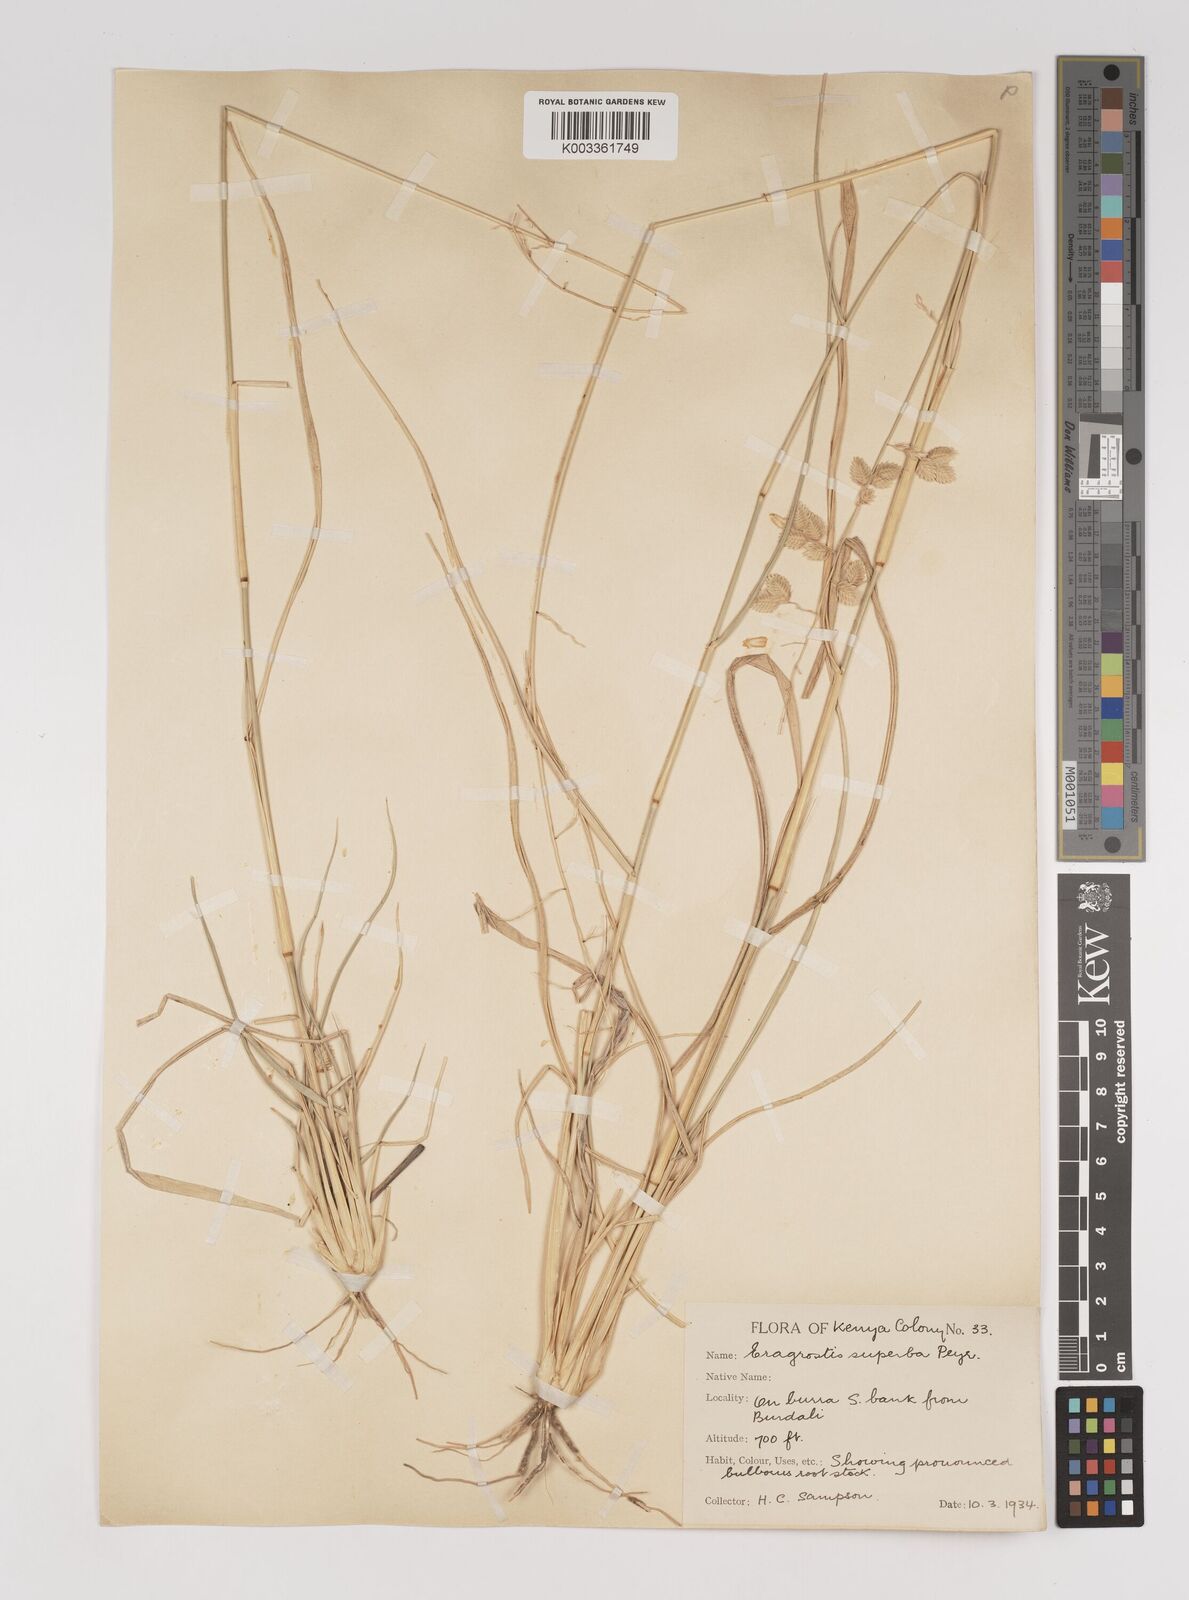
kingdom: Plantae
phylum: Tracheophyta
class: Liliopsida
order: Poales
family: Poaceae
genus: Eragrostis
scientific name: Eragrostis superba
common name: Wilman lovegrass
